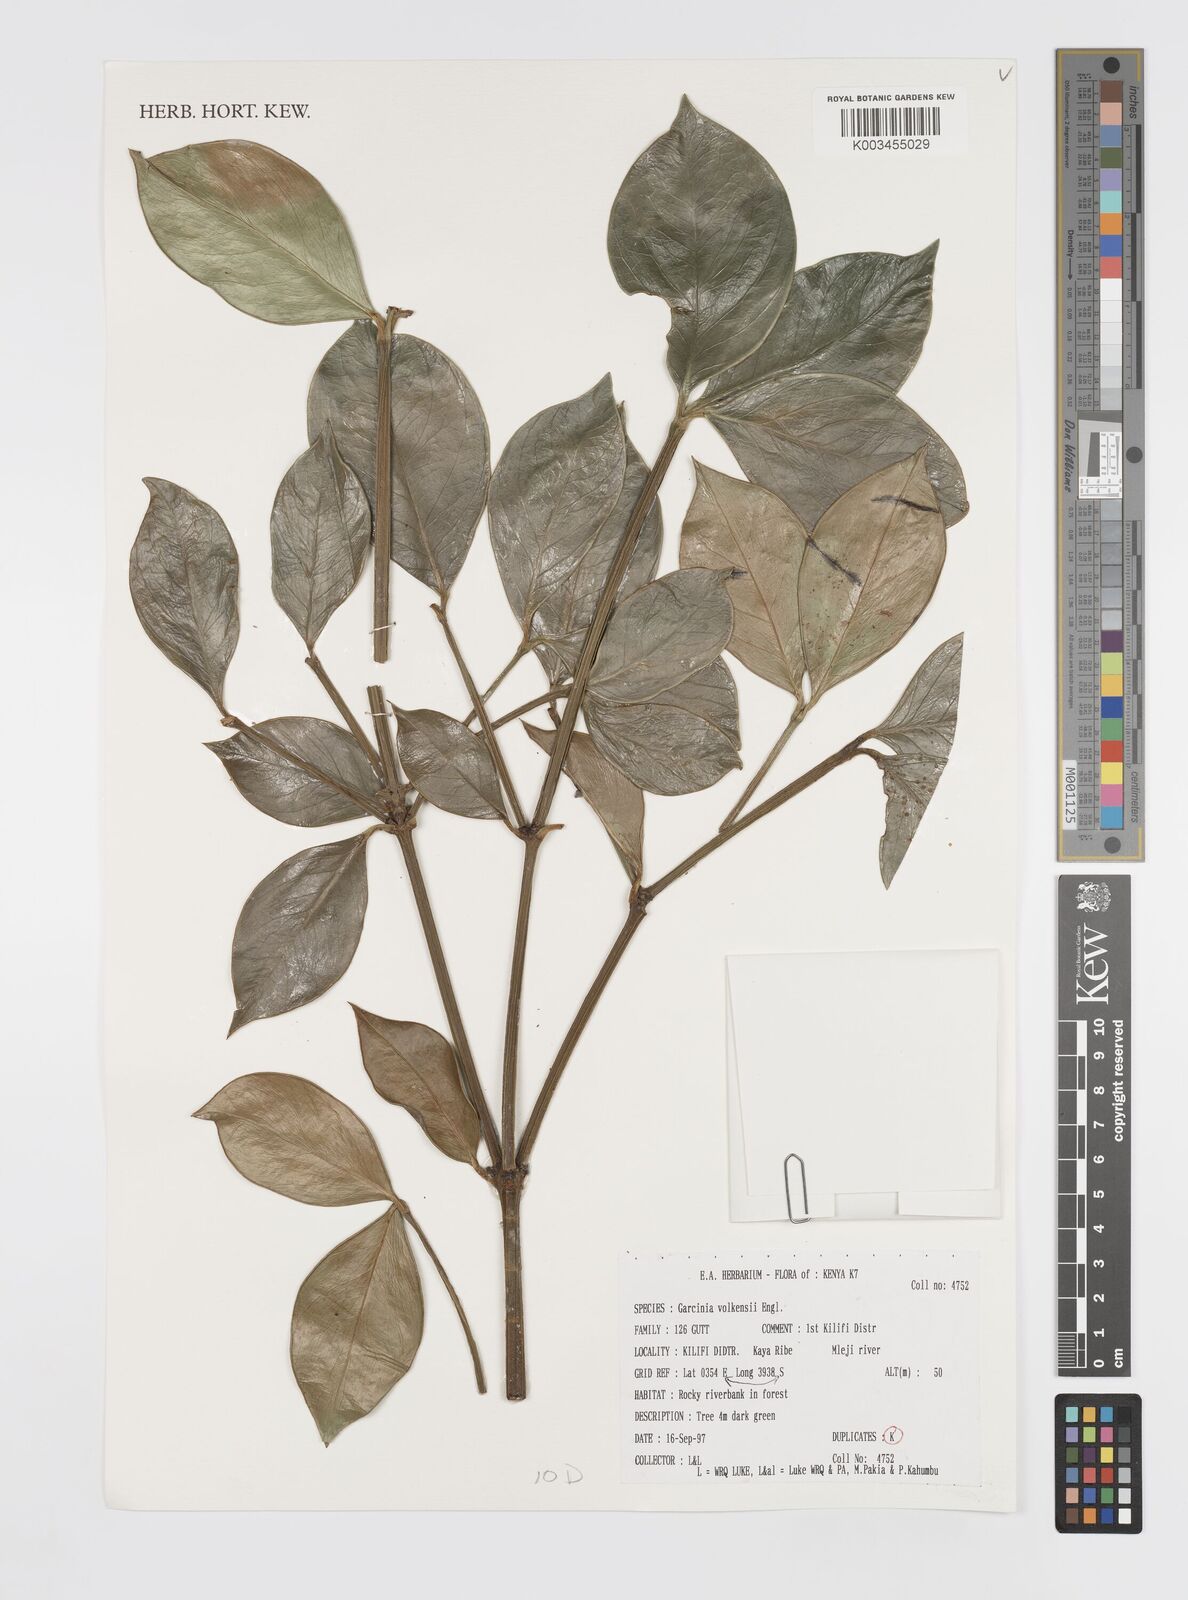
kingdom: Plantae
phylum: Tracheophyta
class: Magnoliopsida
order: Malpighiales
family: Clusiaceae
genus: Garcinia
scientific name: Garcinia volkensii
